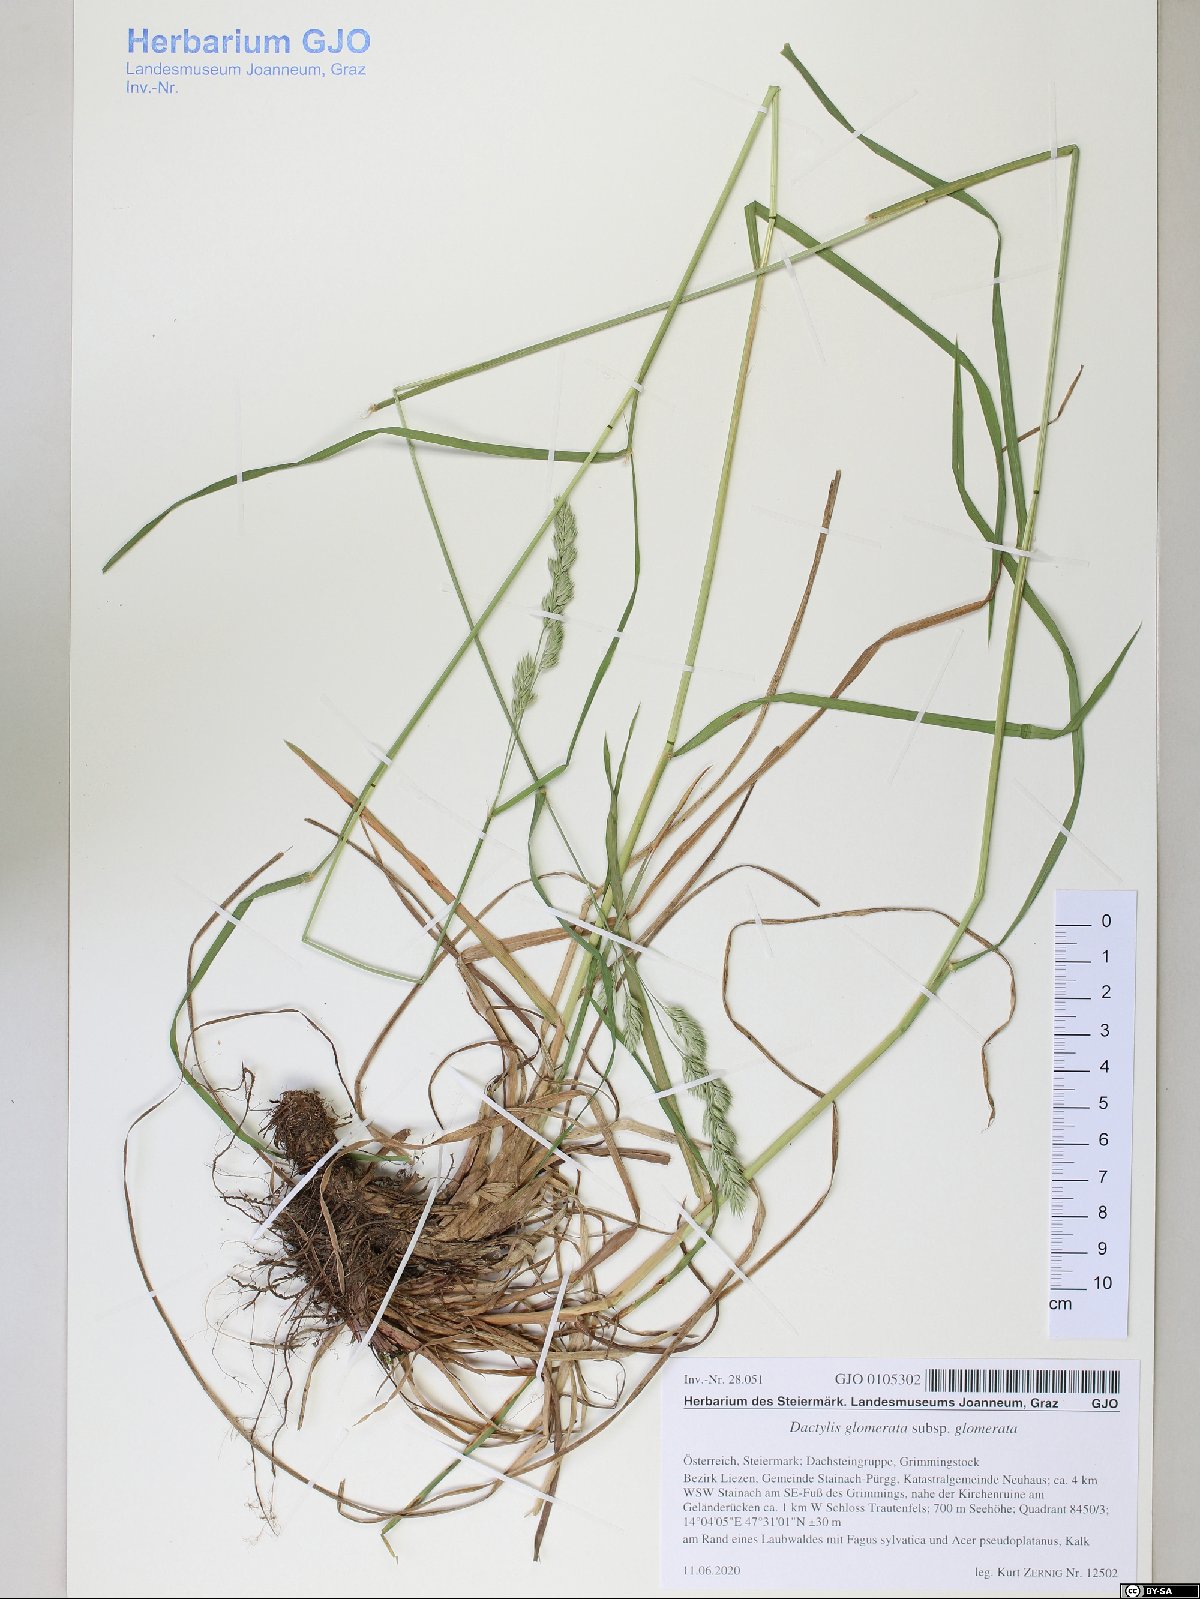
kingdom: Plantae
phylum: Tracheophyta
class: Liliopsida
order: Poales
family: Poaceae
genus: Dactylis
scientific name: Dactylis glomerata
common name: Orchardgrass
